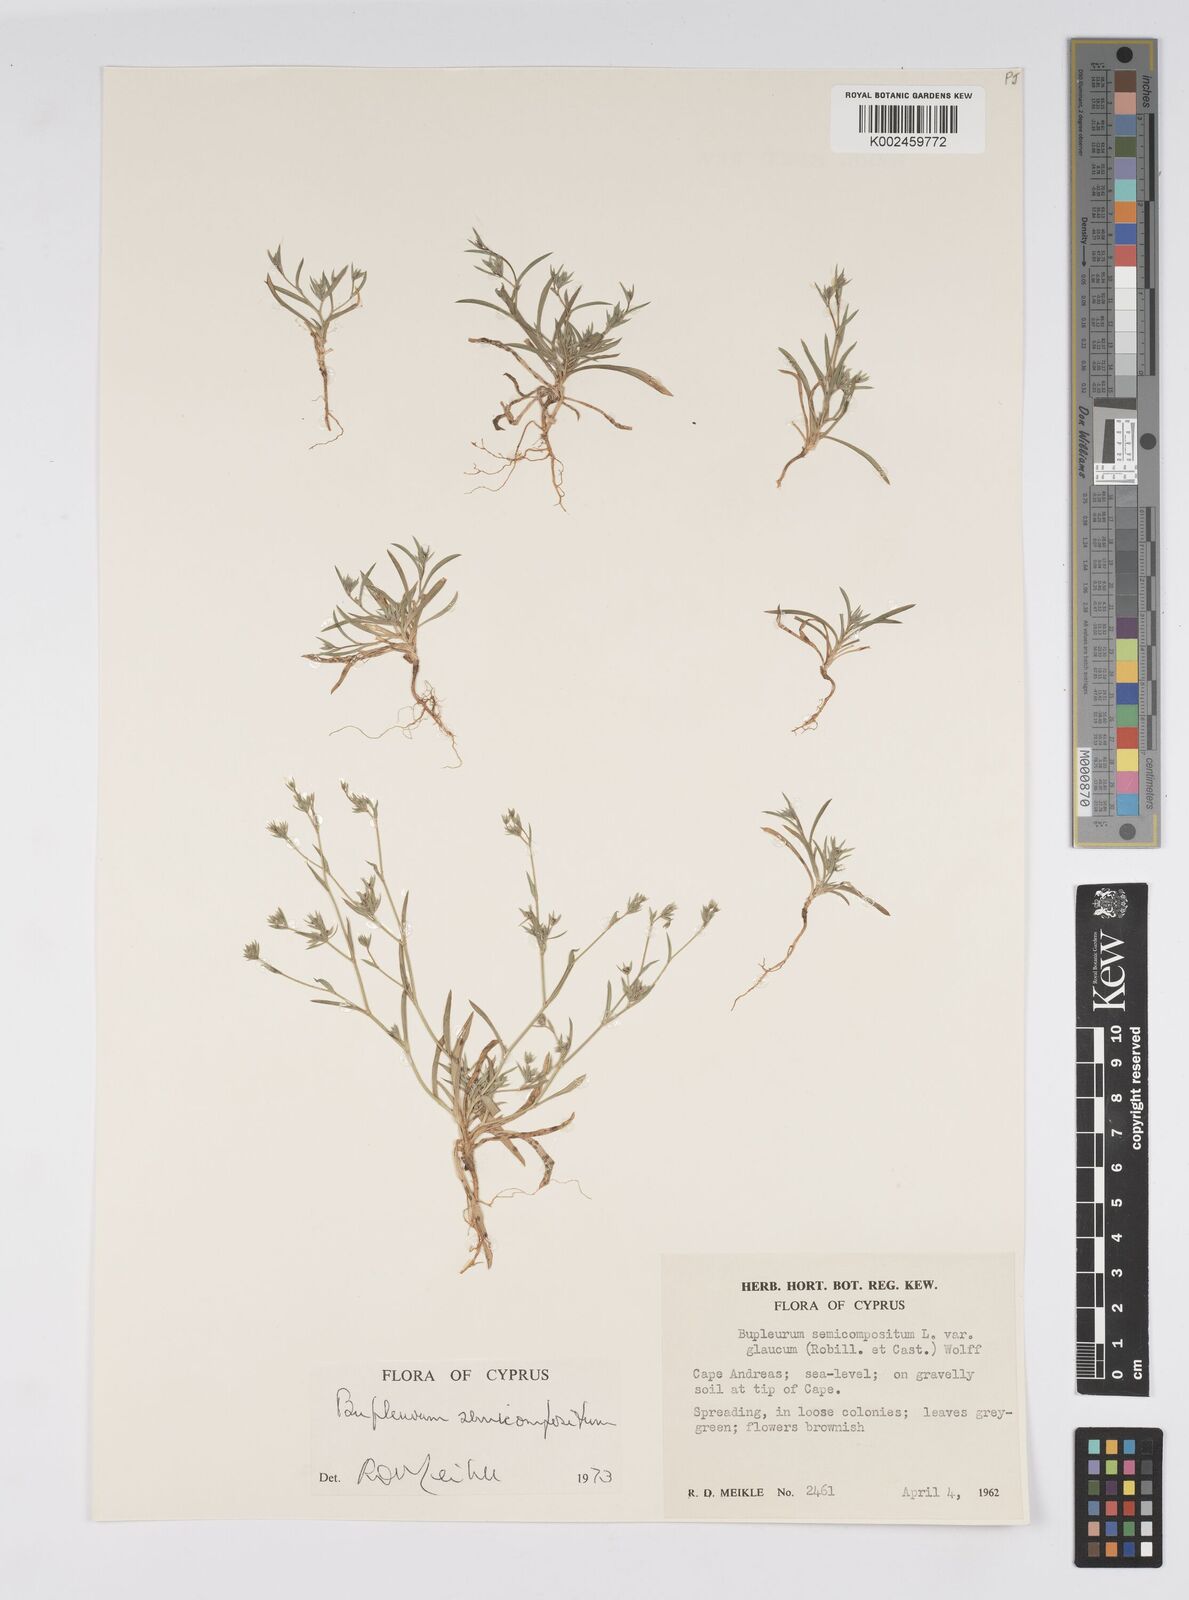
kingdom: Plantae
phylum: Tracheophyta
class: Magnoliopsida
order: Apiales
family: Apiaceae
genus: Bupleurum
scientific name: Bupleurum semicompositum
